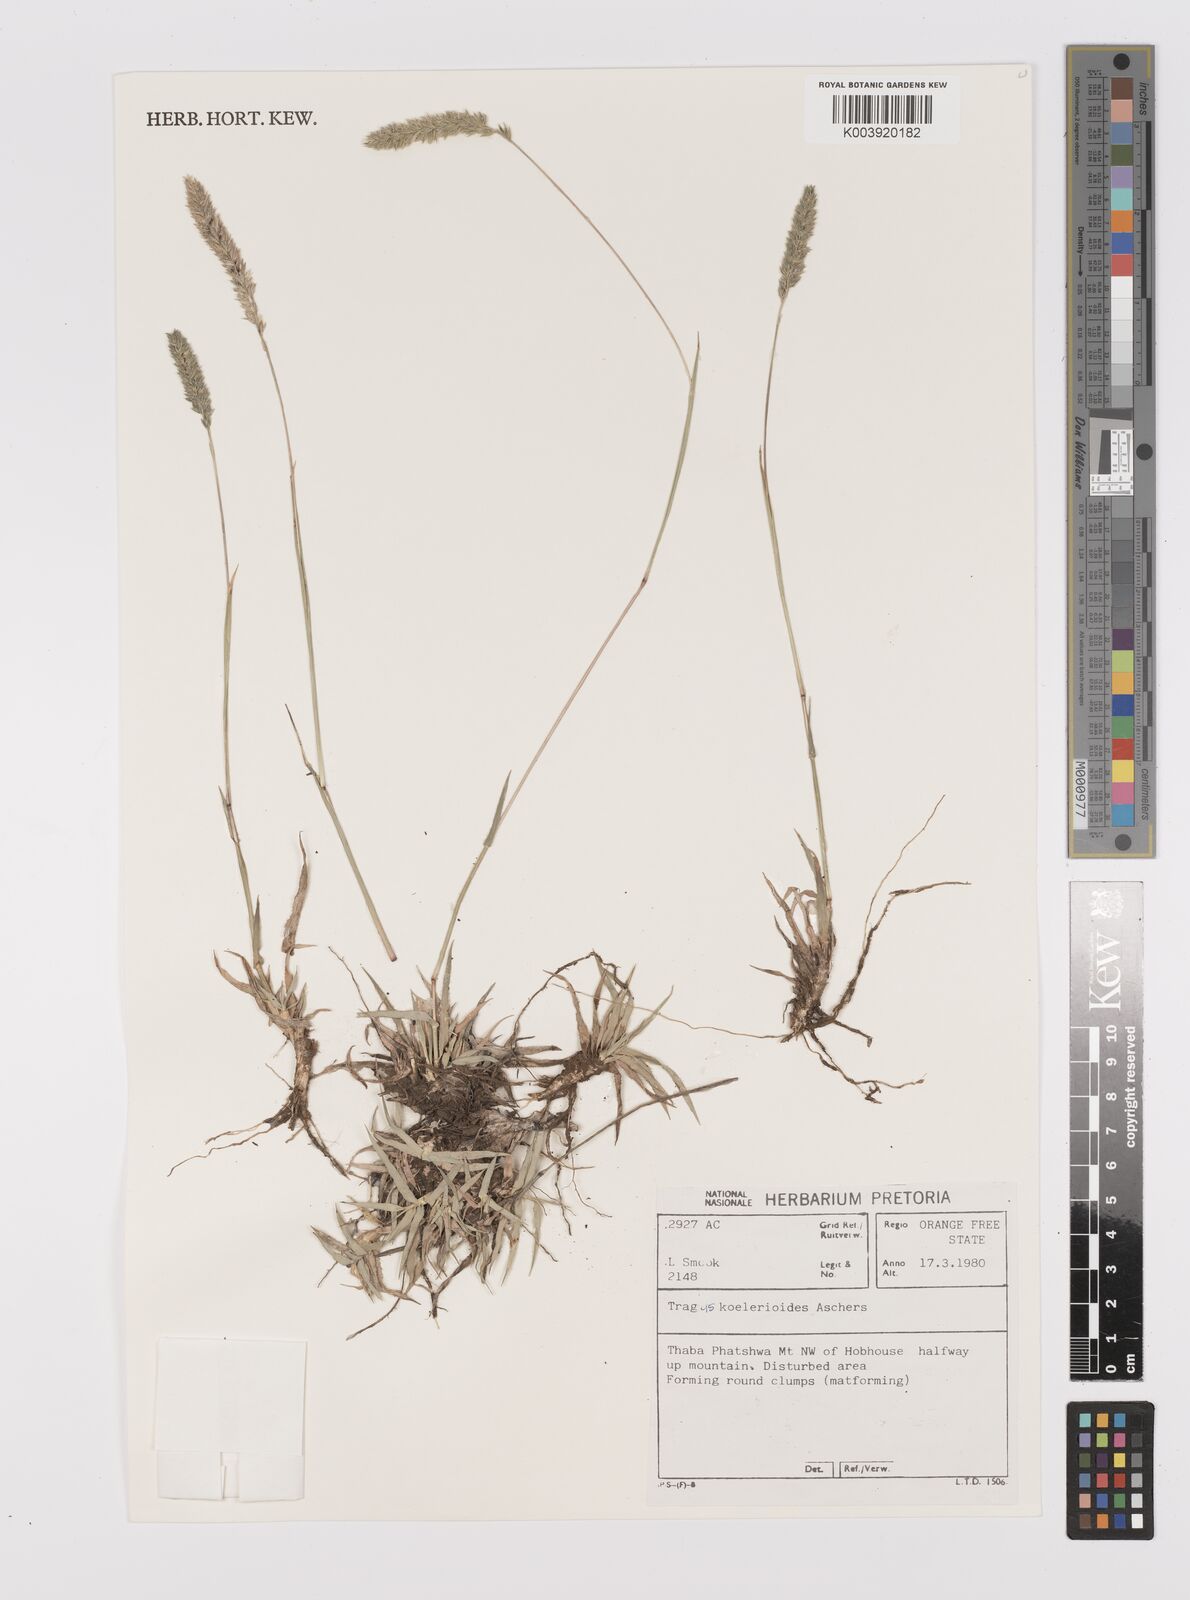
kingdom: Plantae
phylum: Tracheophyta
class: Liliopsida
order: Poales
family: Poaceae
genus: Tragus
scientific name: Tragus koelerioides
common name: Creeping carrot-seed grass
